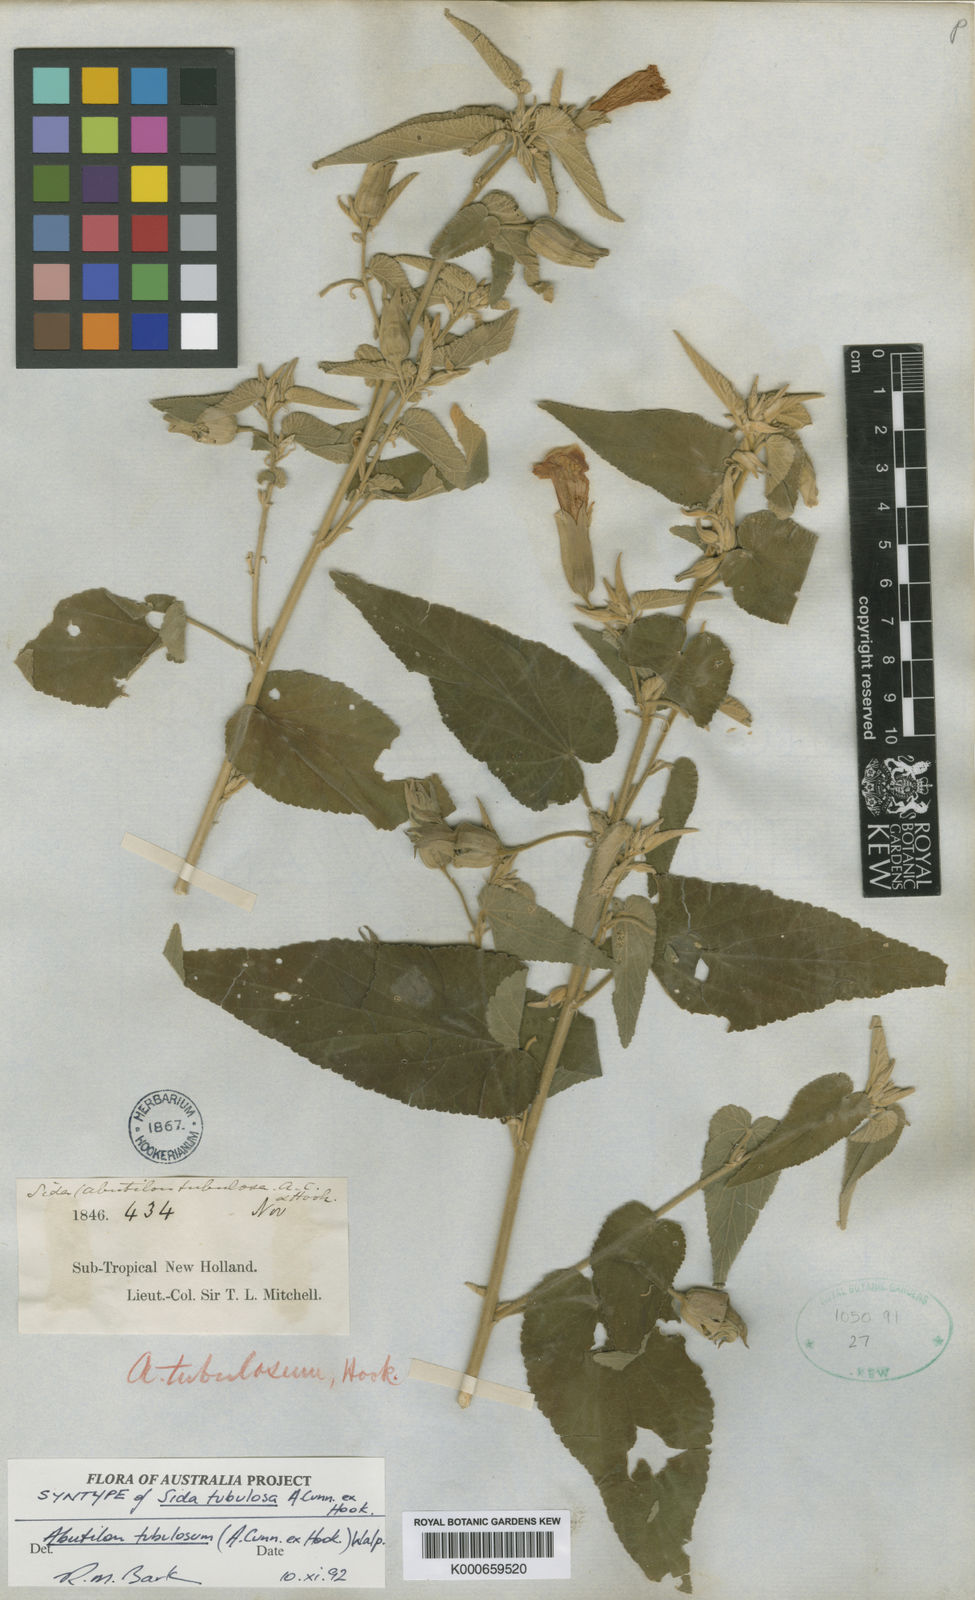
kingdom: Plantae
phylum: Tracheophyta
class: Magnoliopsida
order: Malvales
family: Malvaceae
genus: Abutilon
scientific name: Abutilon tubulosum
